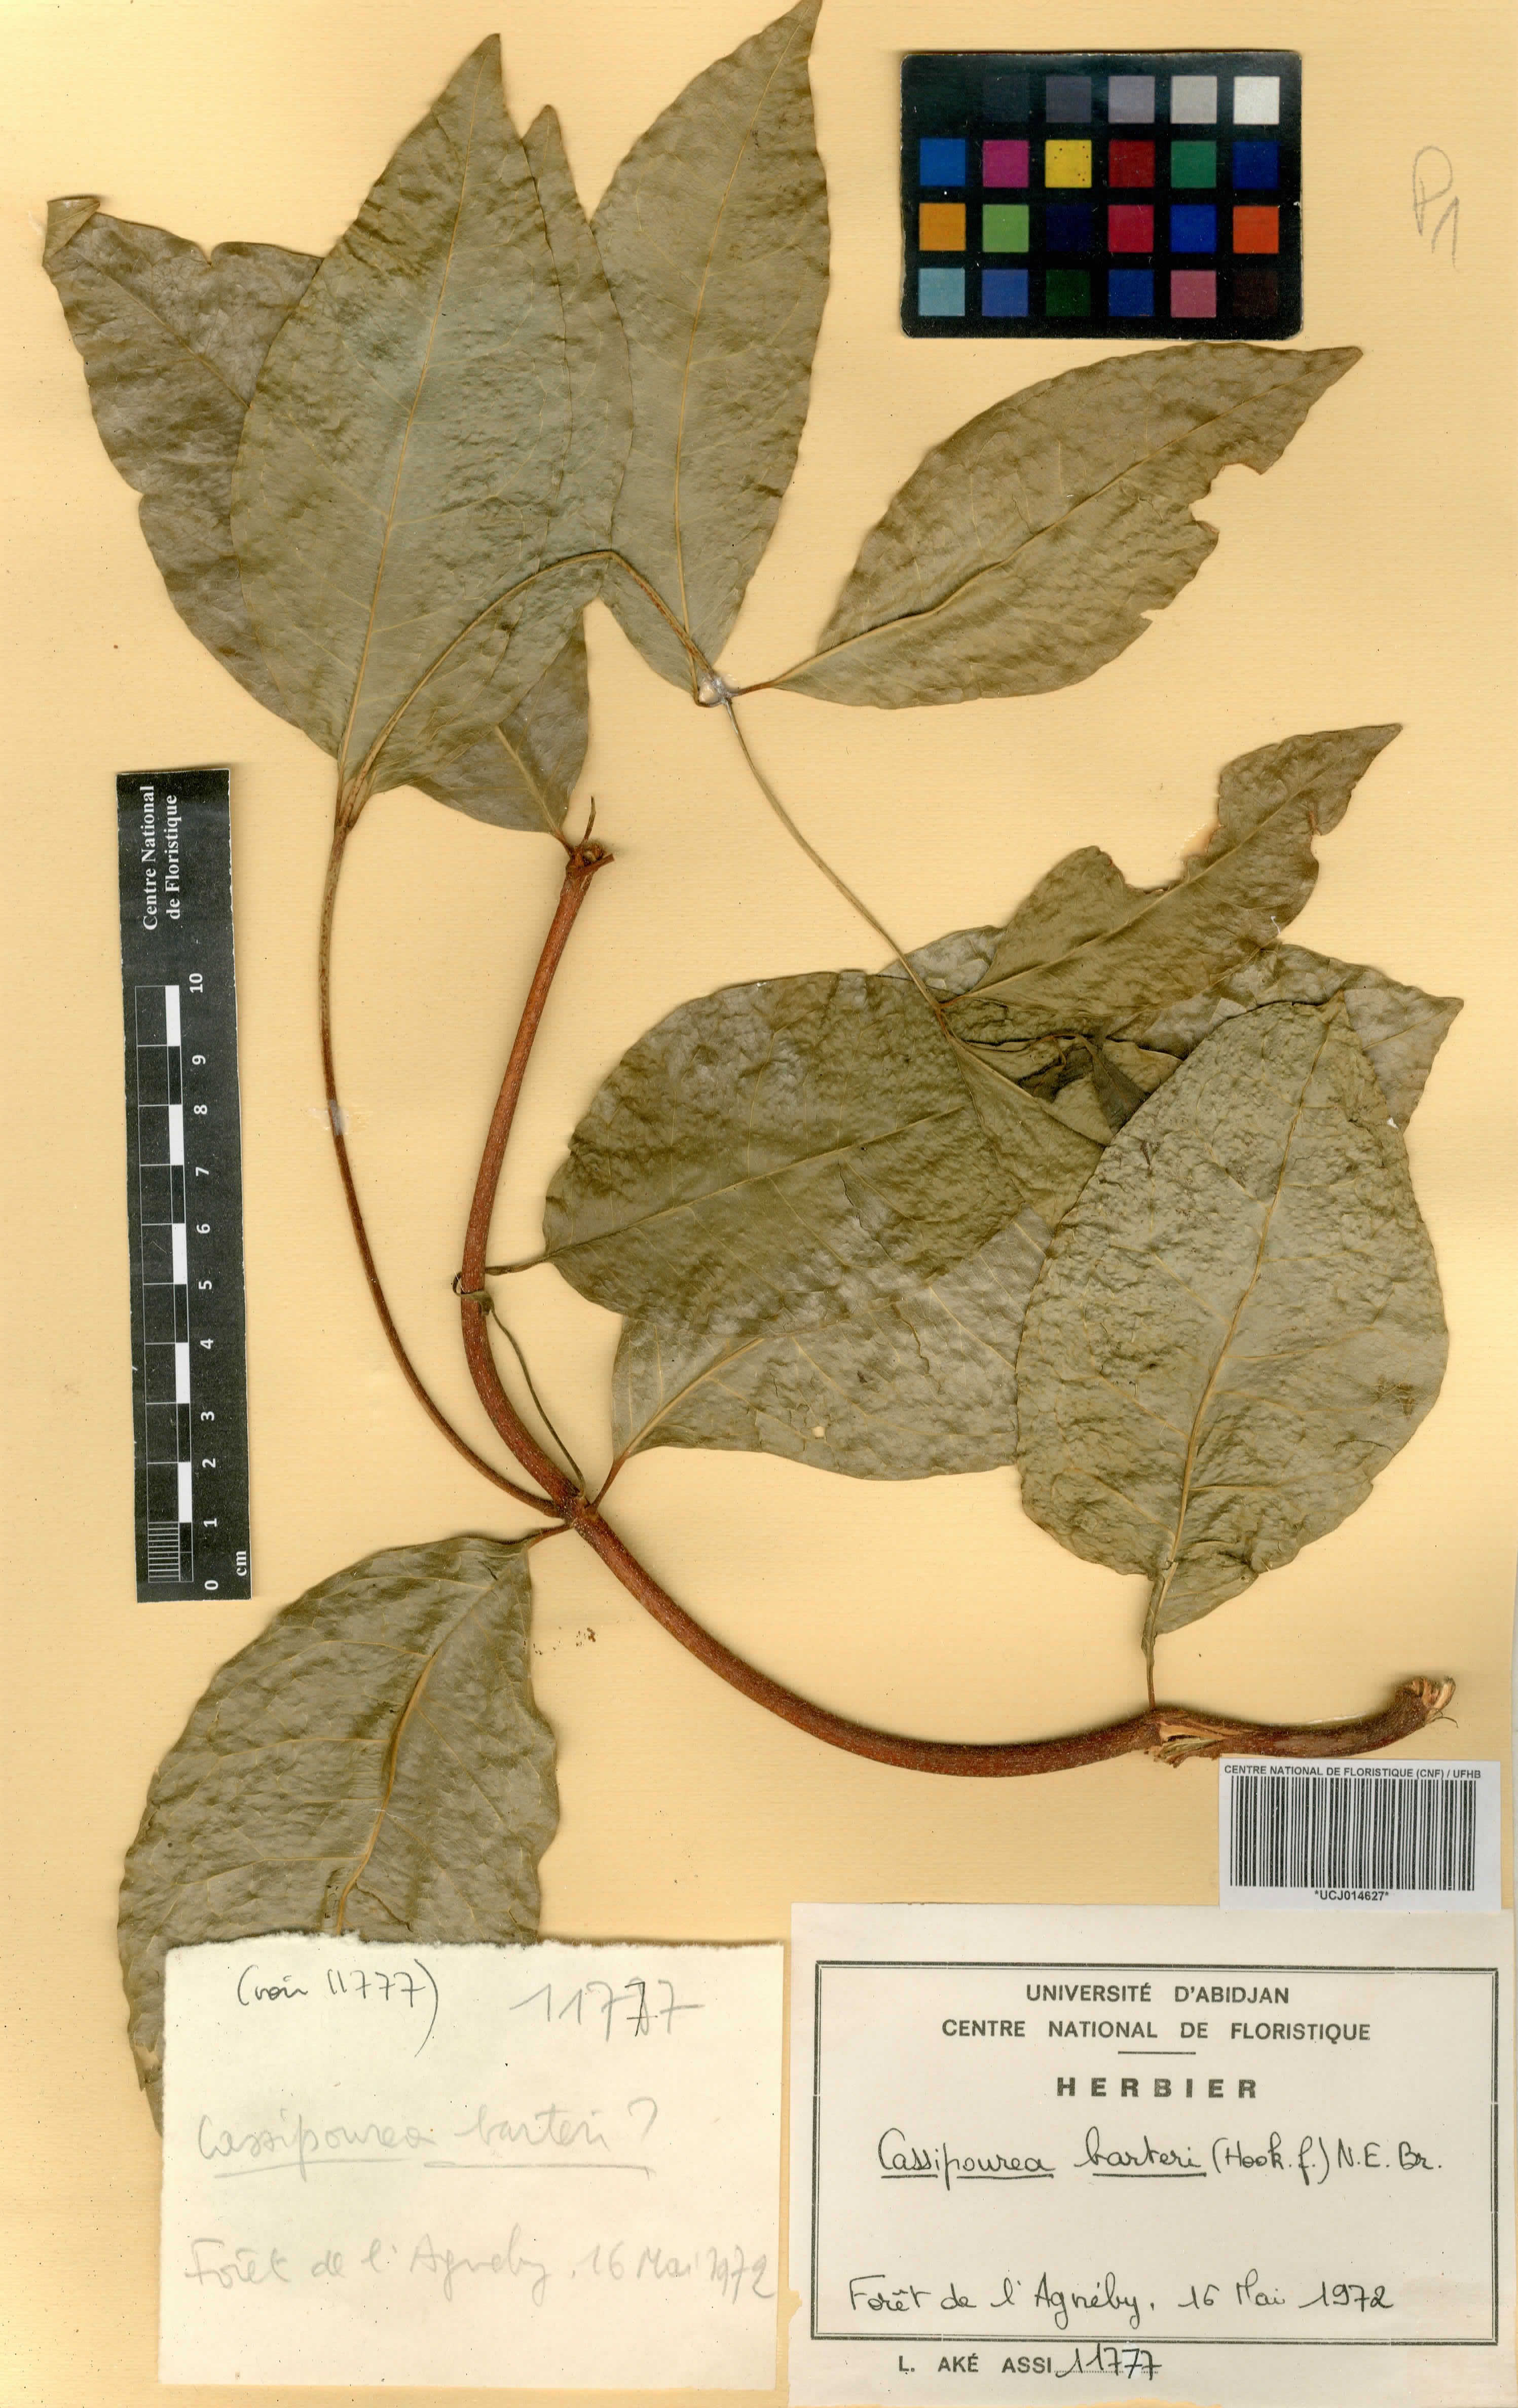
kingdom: Plantae
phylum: Tracheophyta
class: Magnoliopsida
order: Malpighiales
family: Rhizophoraceae
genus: Cassipourea
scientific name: Cassipourea barteri
